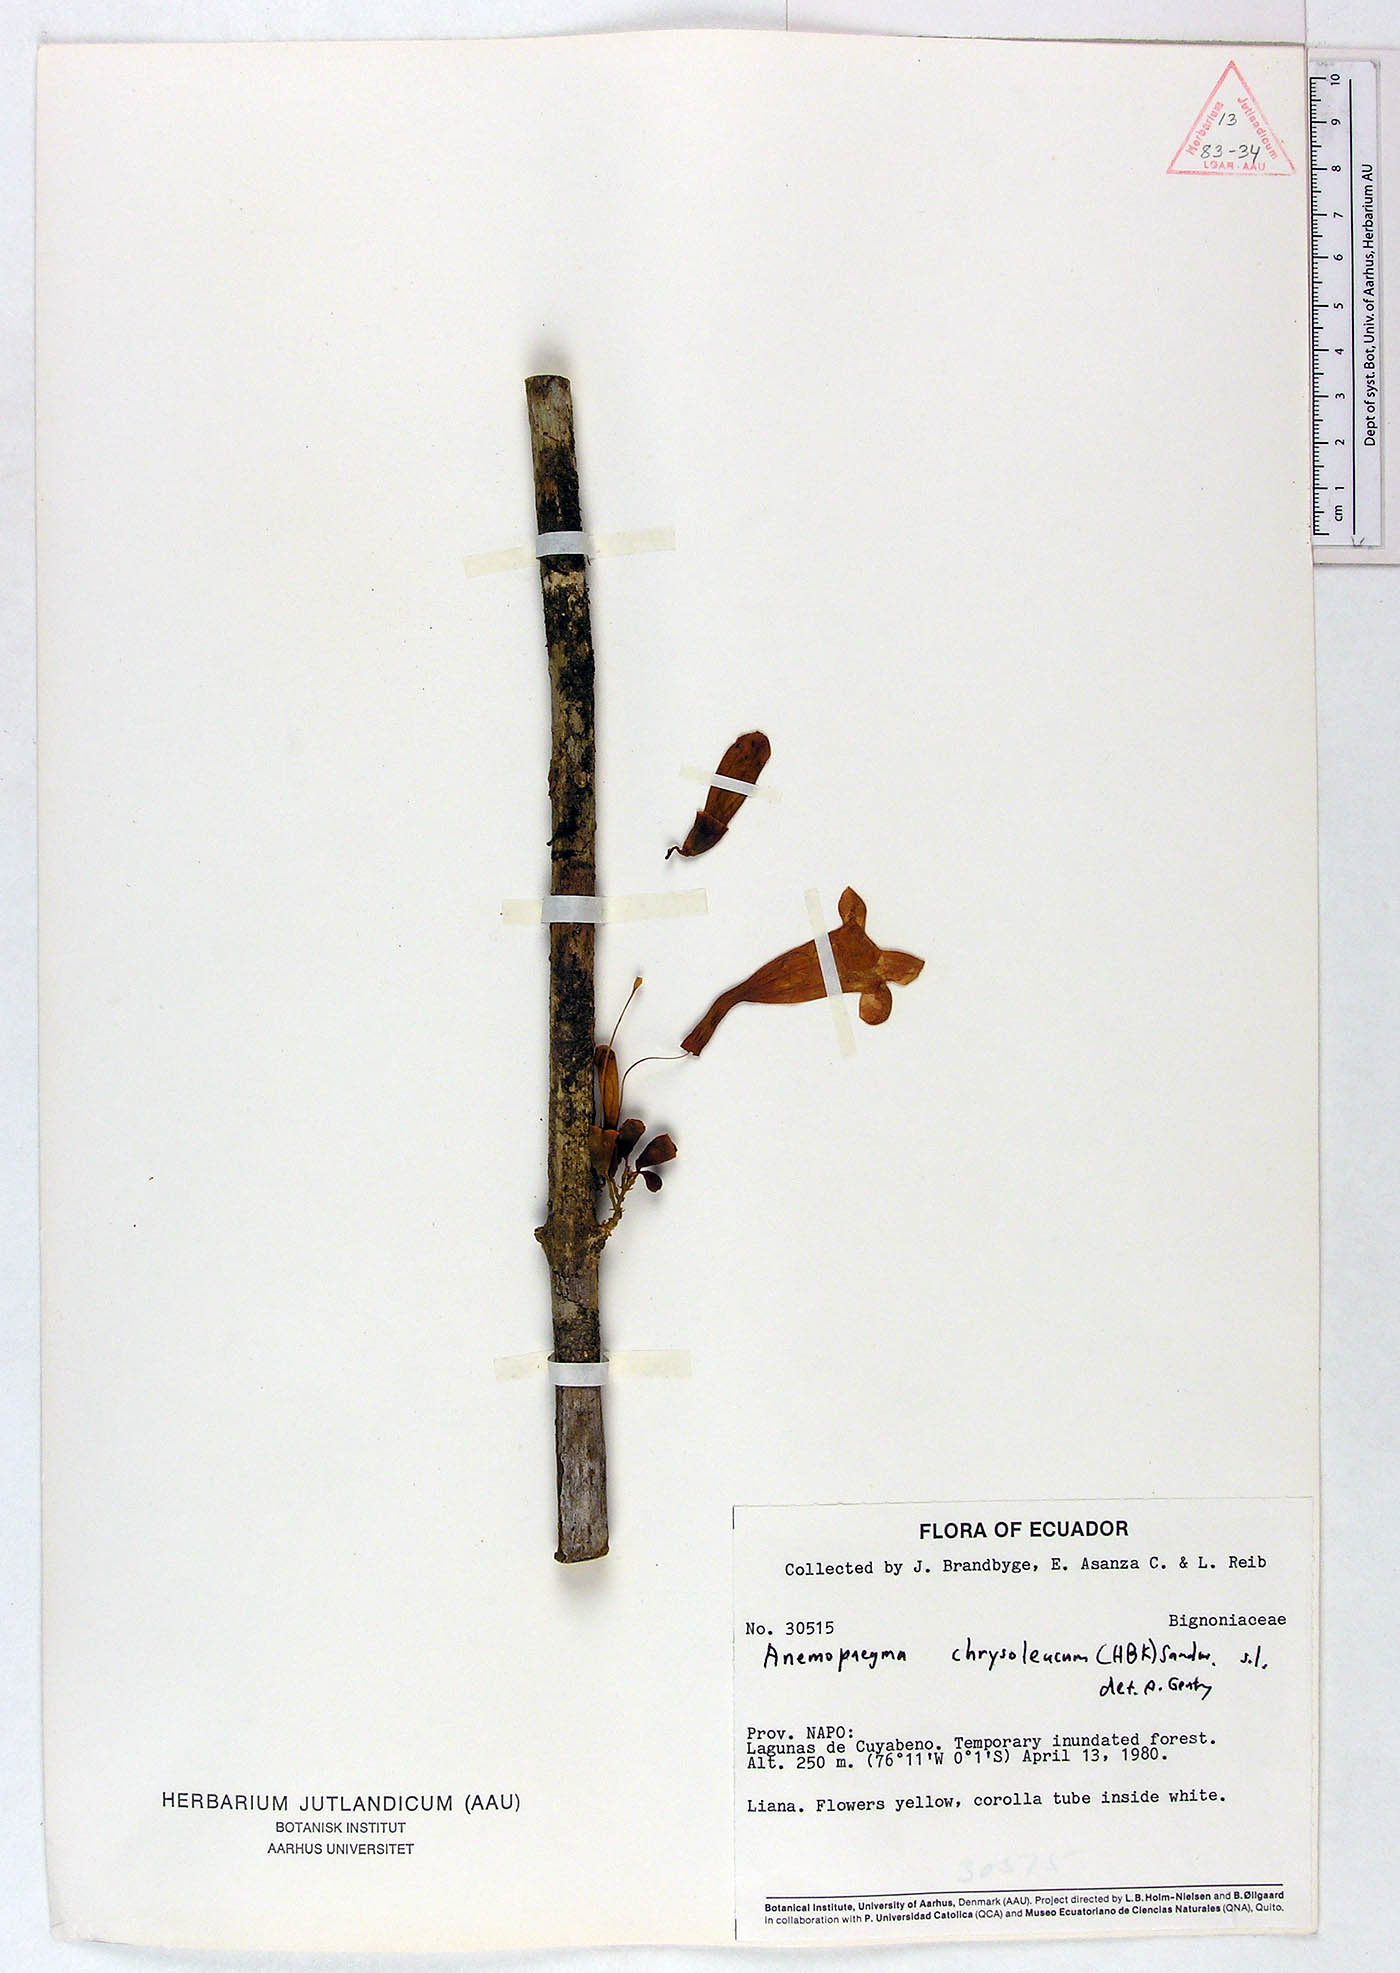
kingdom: Plantae
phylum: Tracheophyta
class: Magnoliopsida
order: Lamiales
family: Bignoniaceae
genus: Anemopaegma
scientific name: Anemopaegma chrysoleucum
